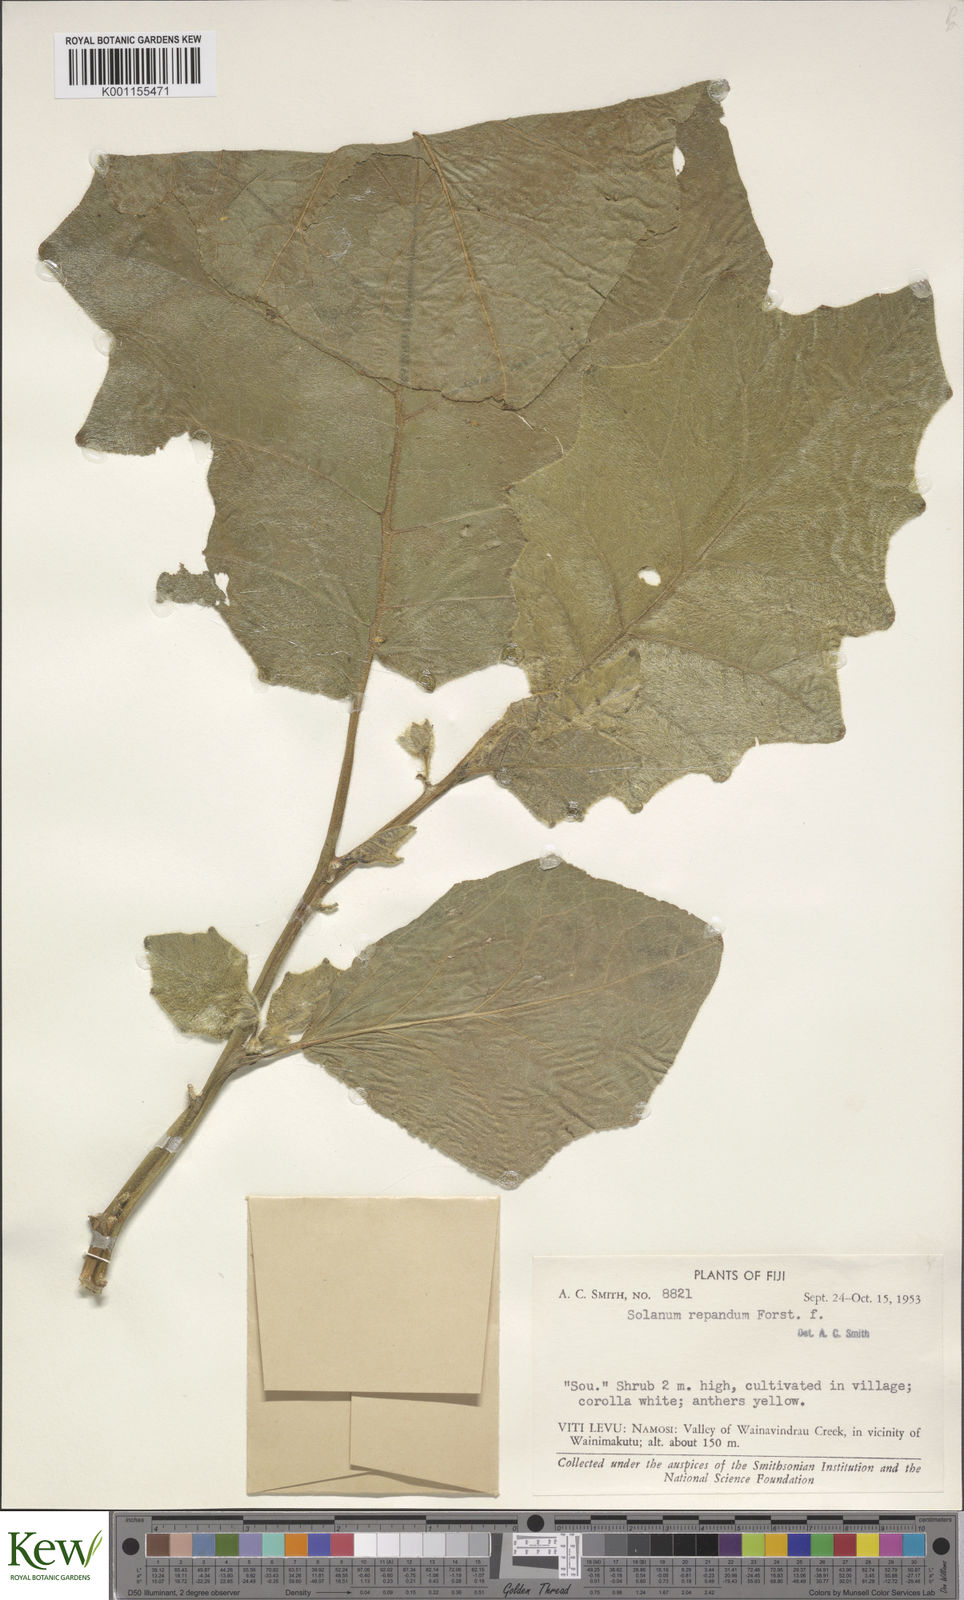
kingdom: Plantae
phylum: Tracheophyta
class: Magnoliopsida
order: Solanales
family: Solanaceae
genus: Solanum
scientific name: Solanum repandum
